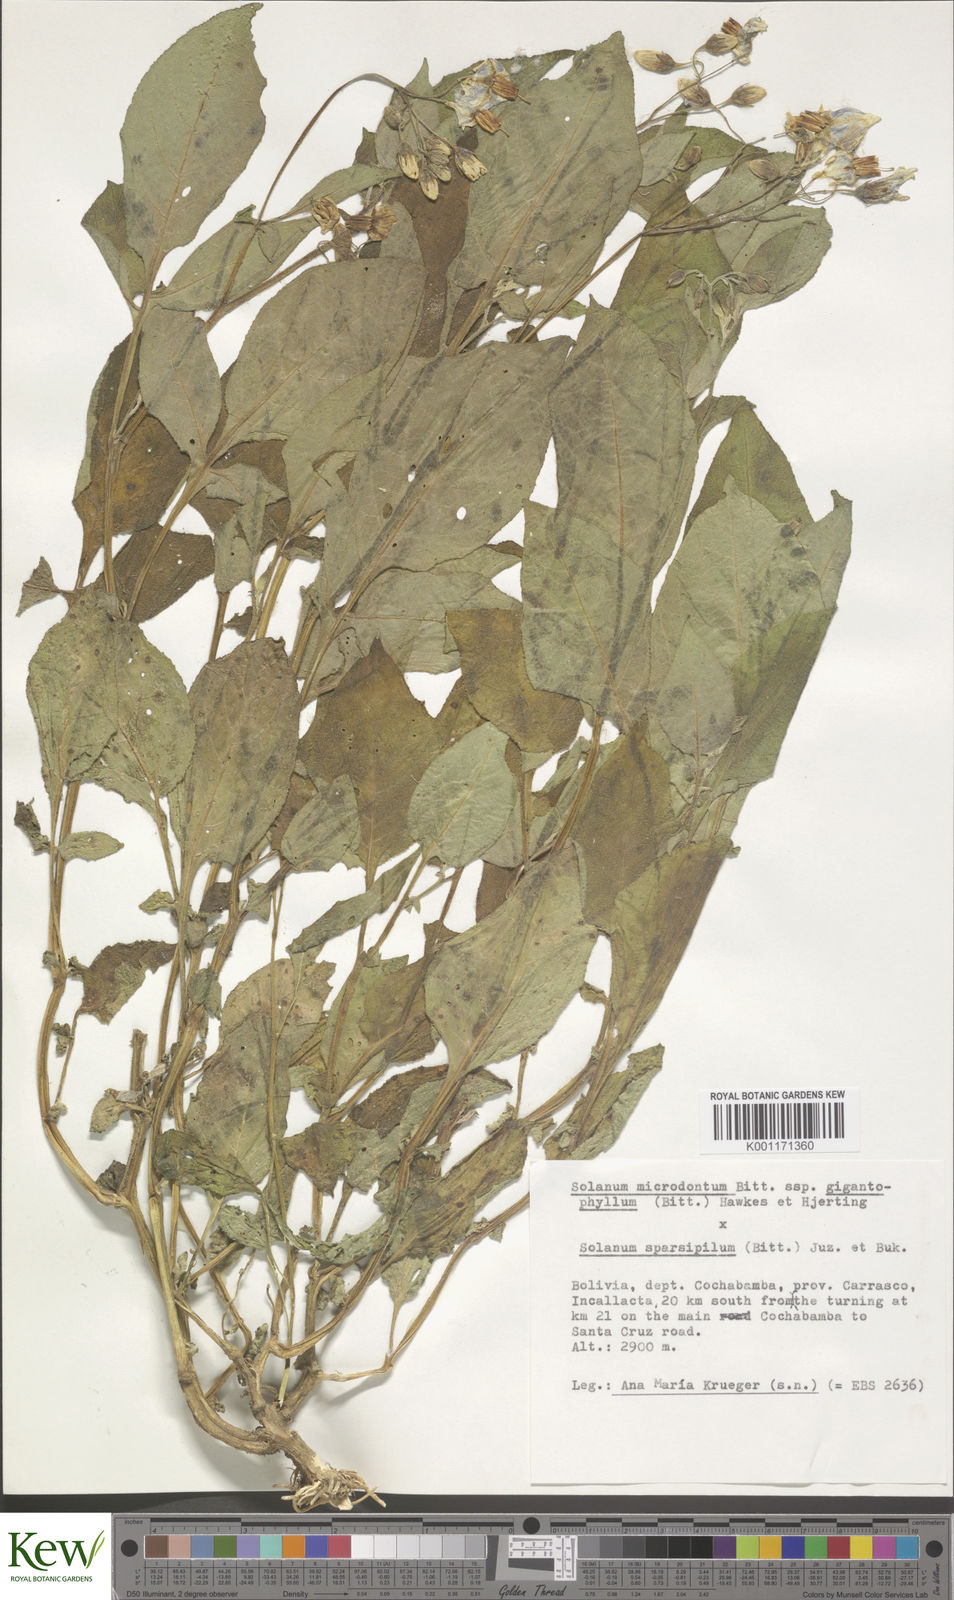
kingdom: Plantae
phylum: Tracheophyta
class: Magnoliopsida
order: Solanales
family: Solanaceae
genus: Solanum
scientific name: Solanum microdontum
